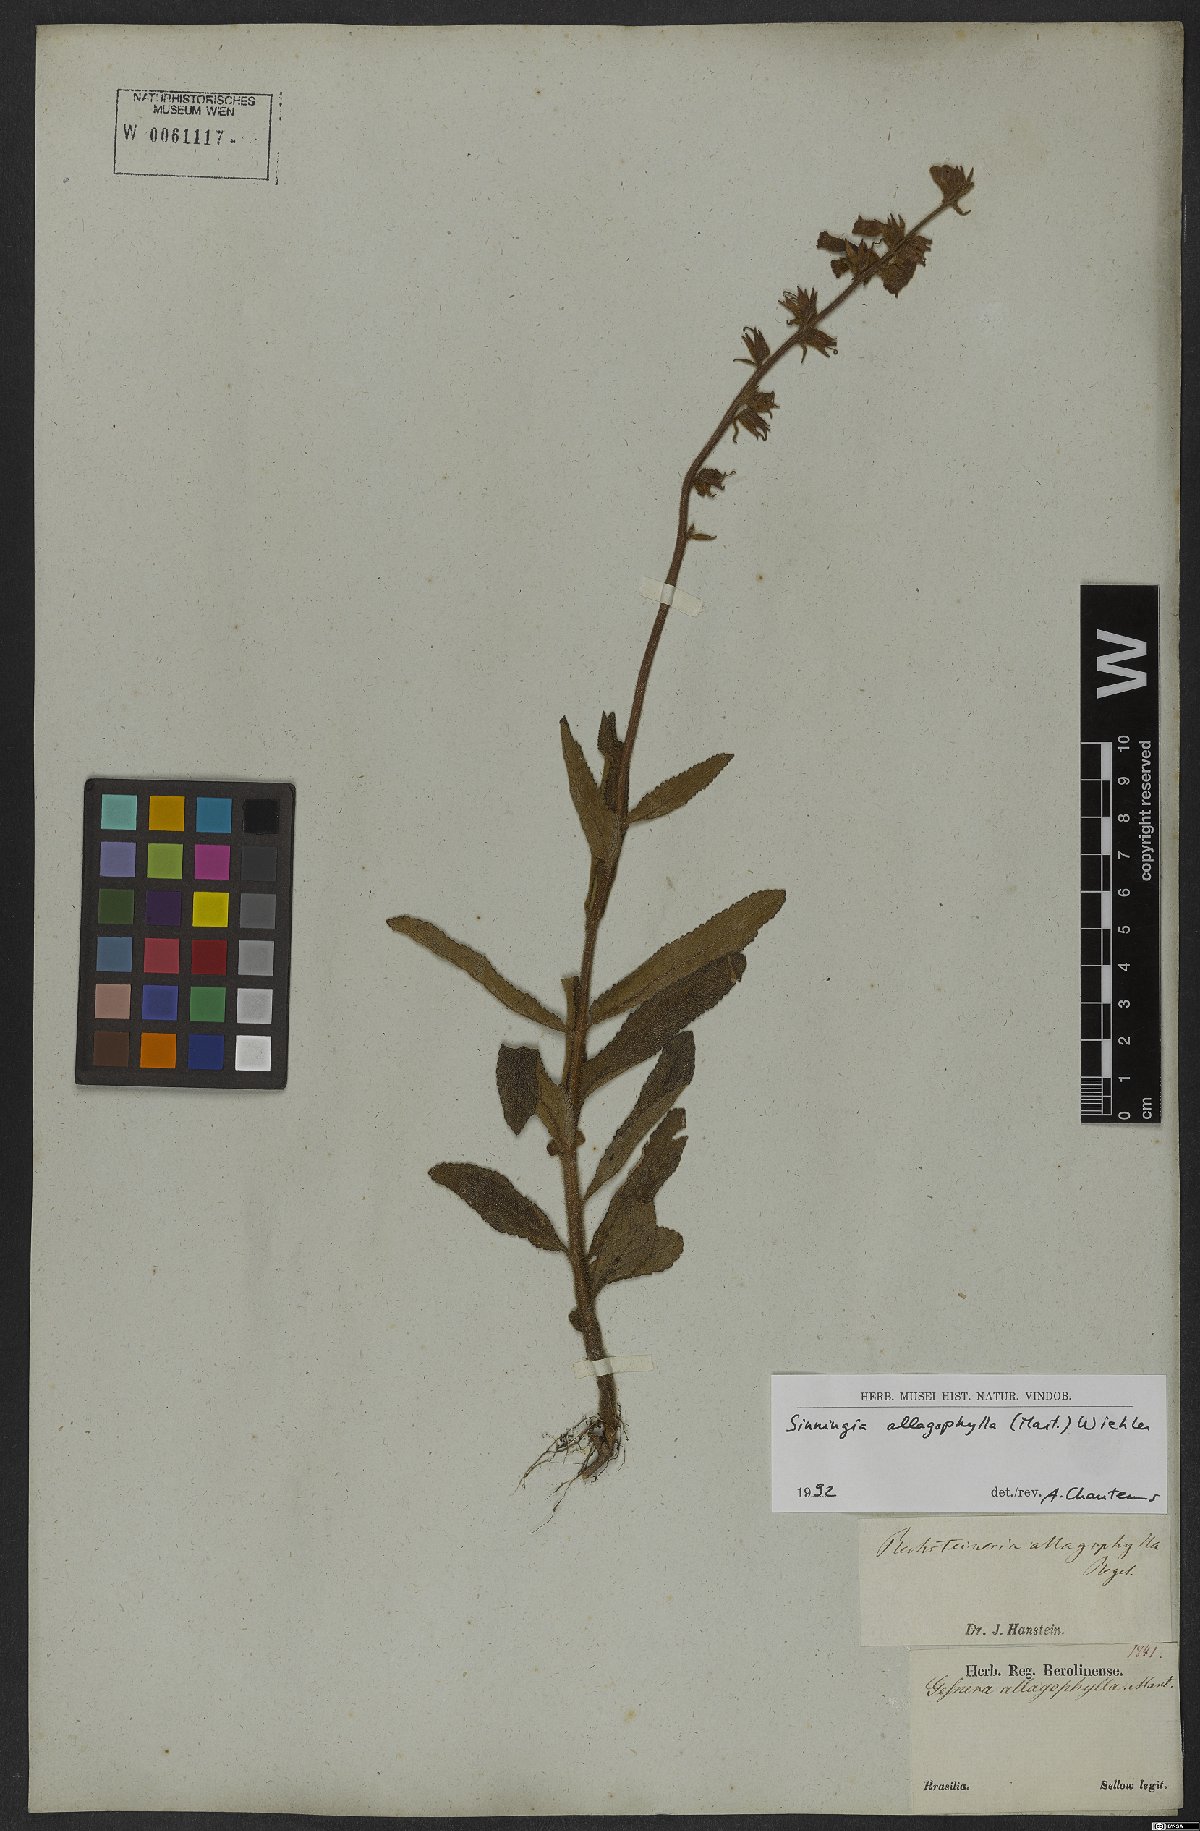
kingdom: Plantae
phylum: Tracheophyta
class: Magnoliopsida
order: Lamiales
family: Gesneriaceae
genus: Sinningia
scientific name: Sinningia allagophylla
